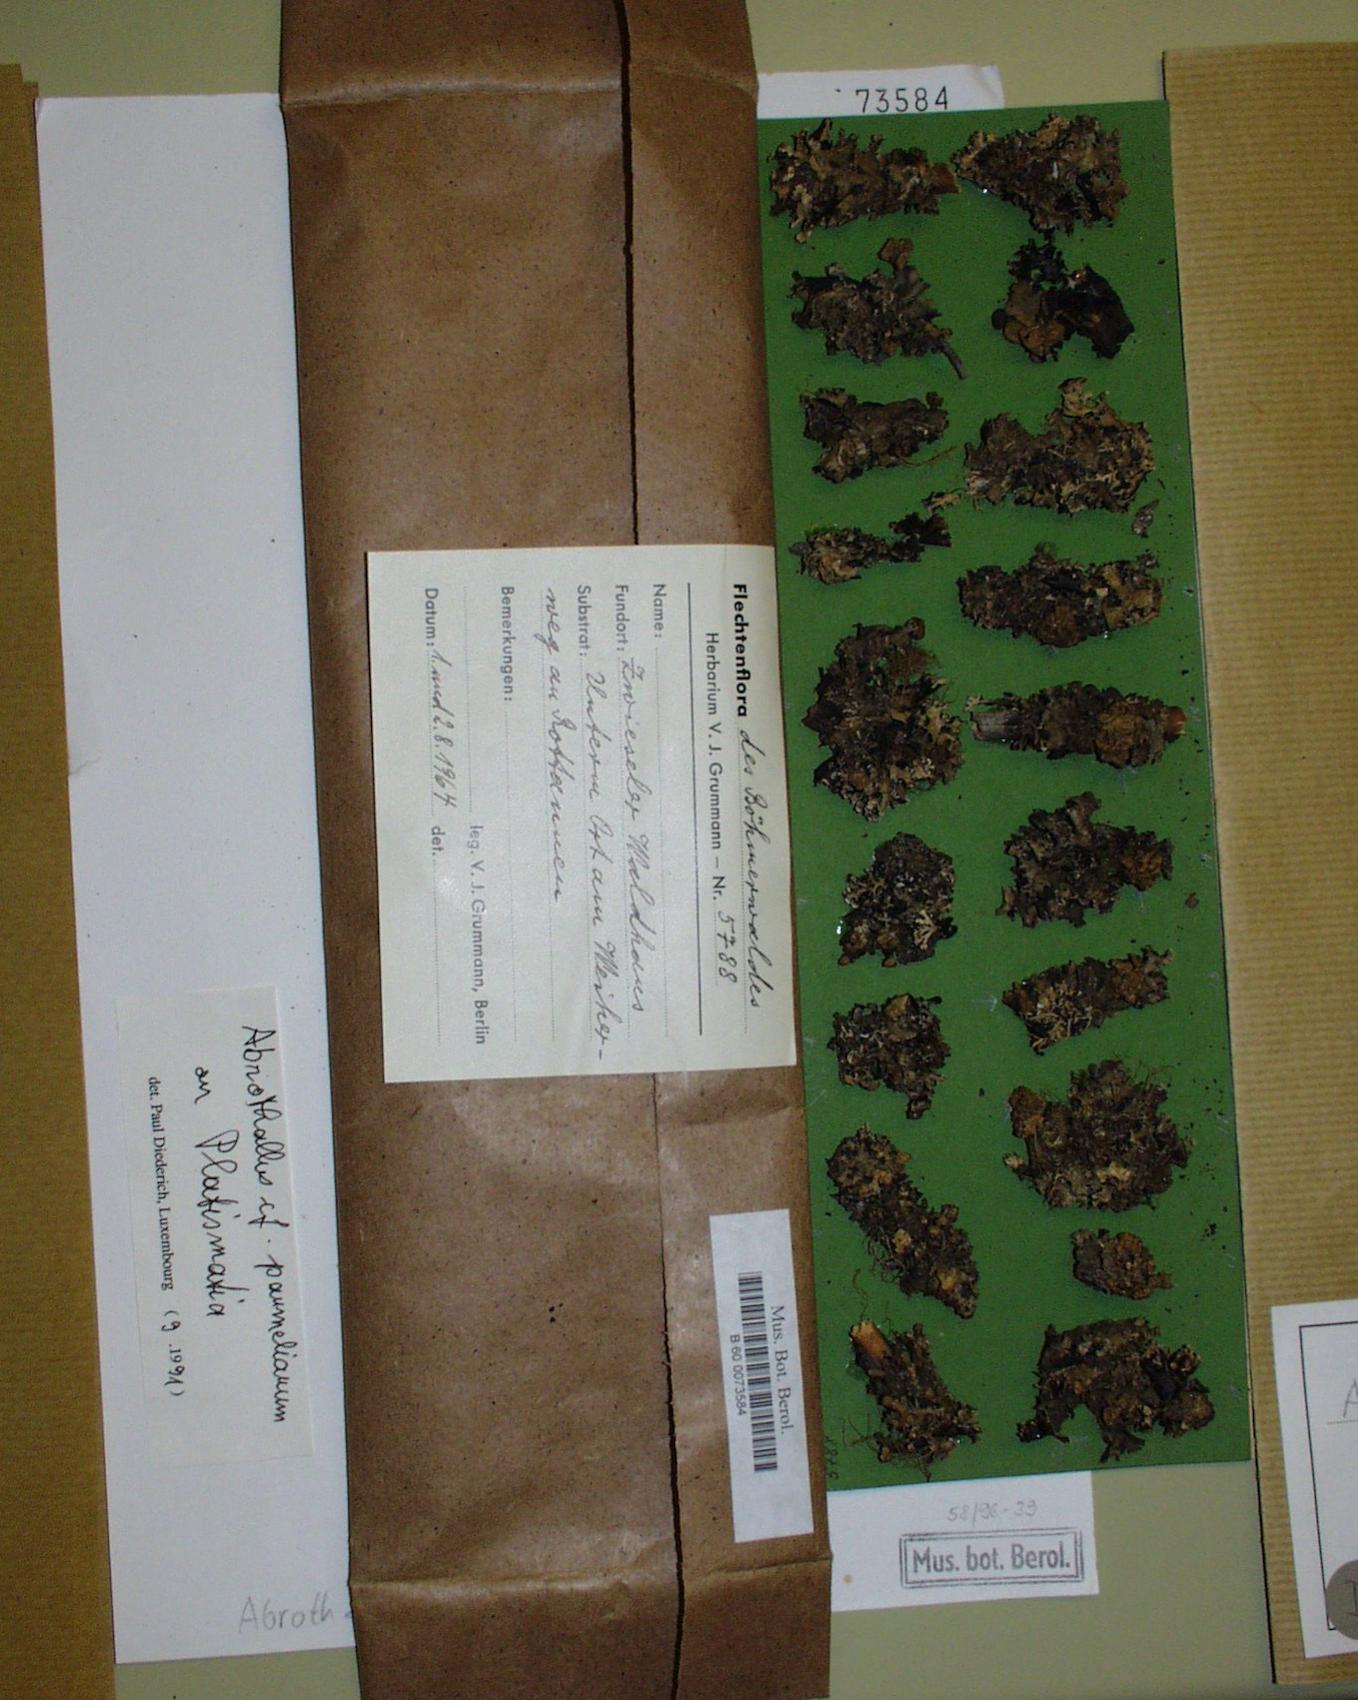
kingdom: Fungi
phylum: Ascomycota
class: Dothideomycetes
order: Abrothallales
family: Abrothallaceae
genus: Abrothallus
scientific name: Abrothallus parmeliarum
